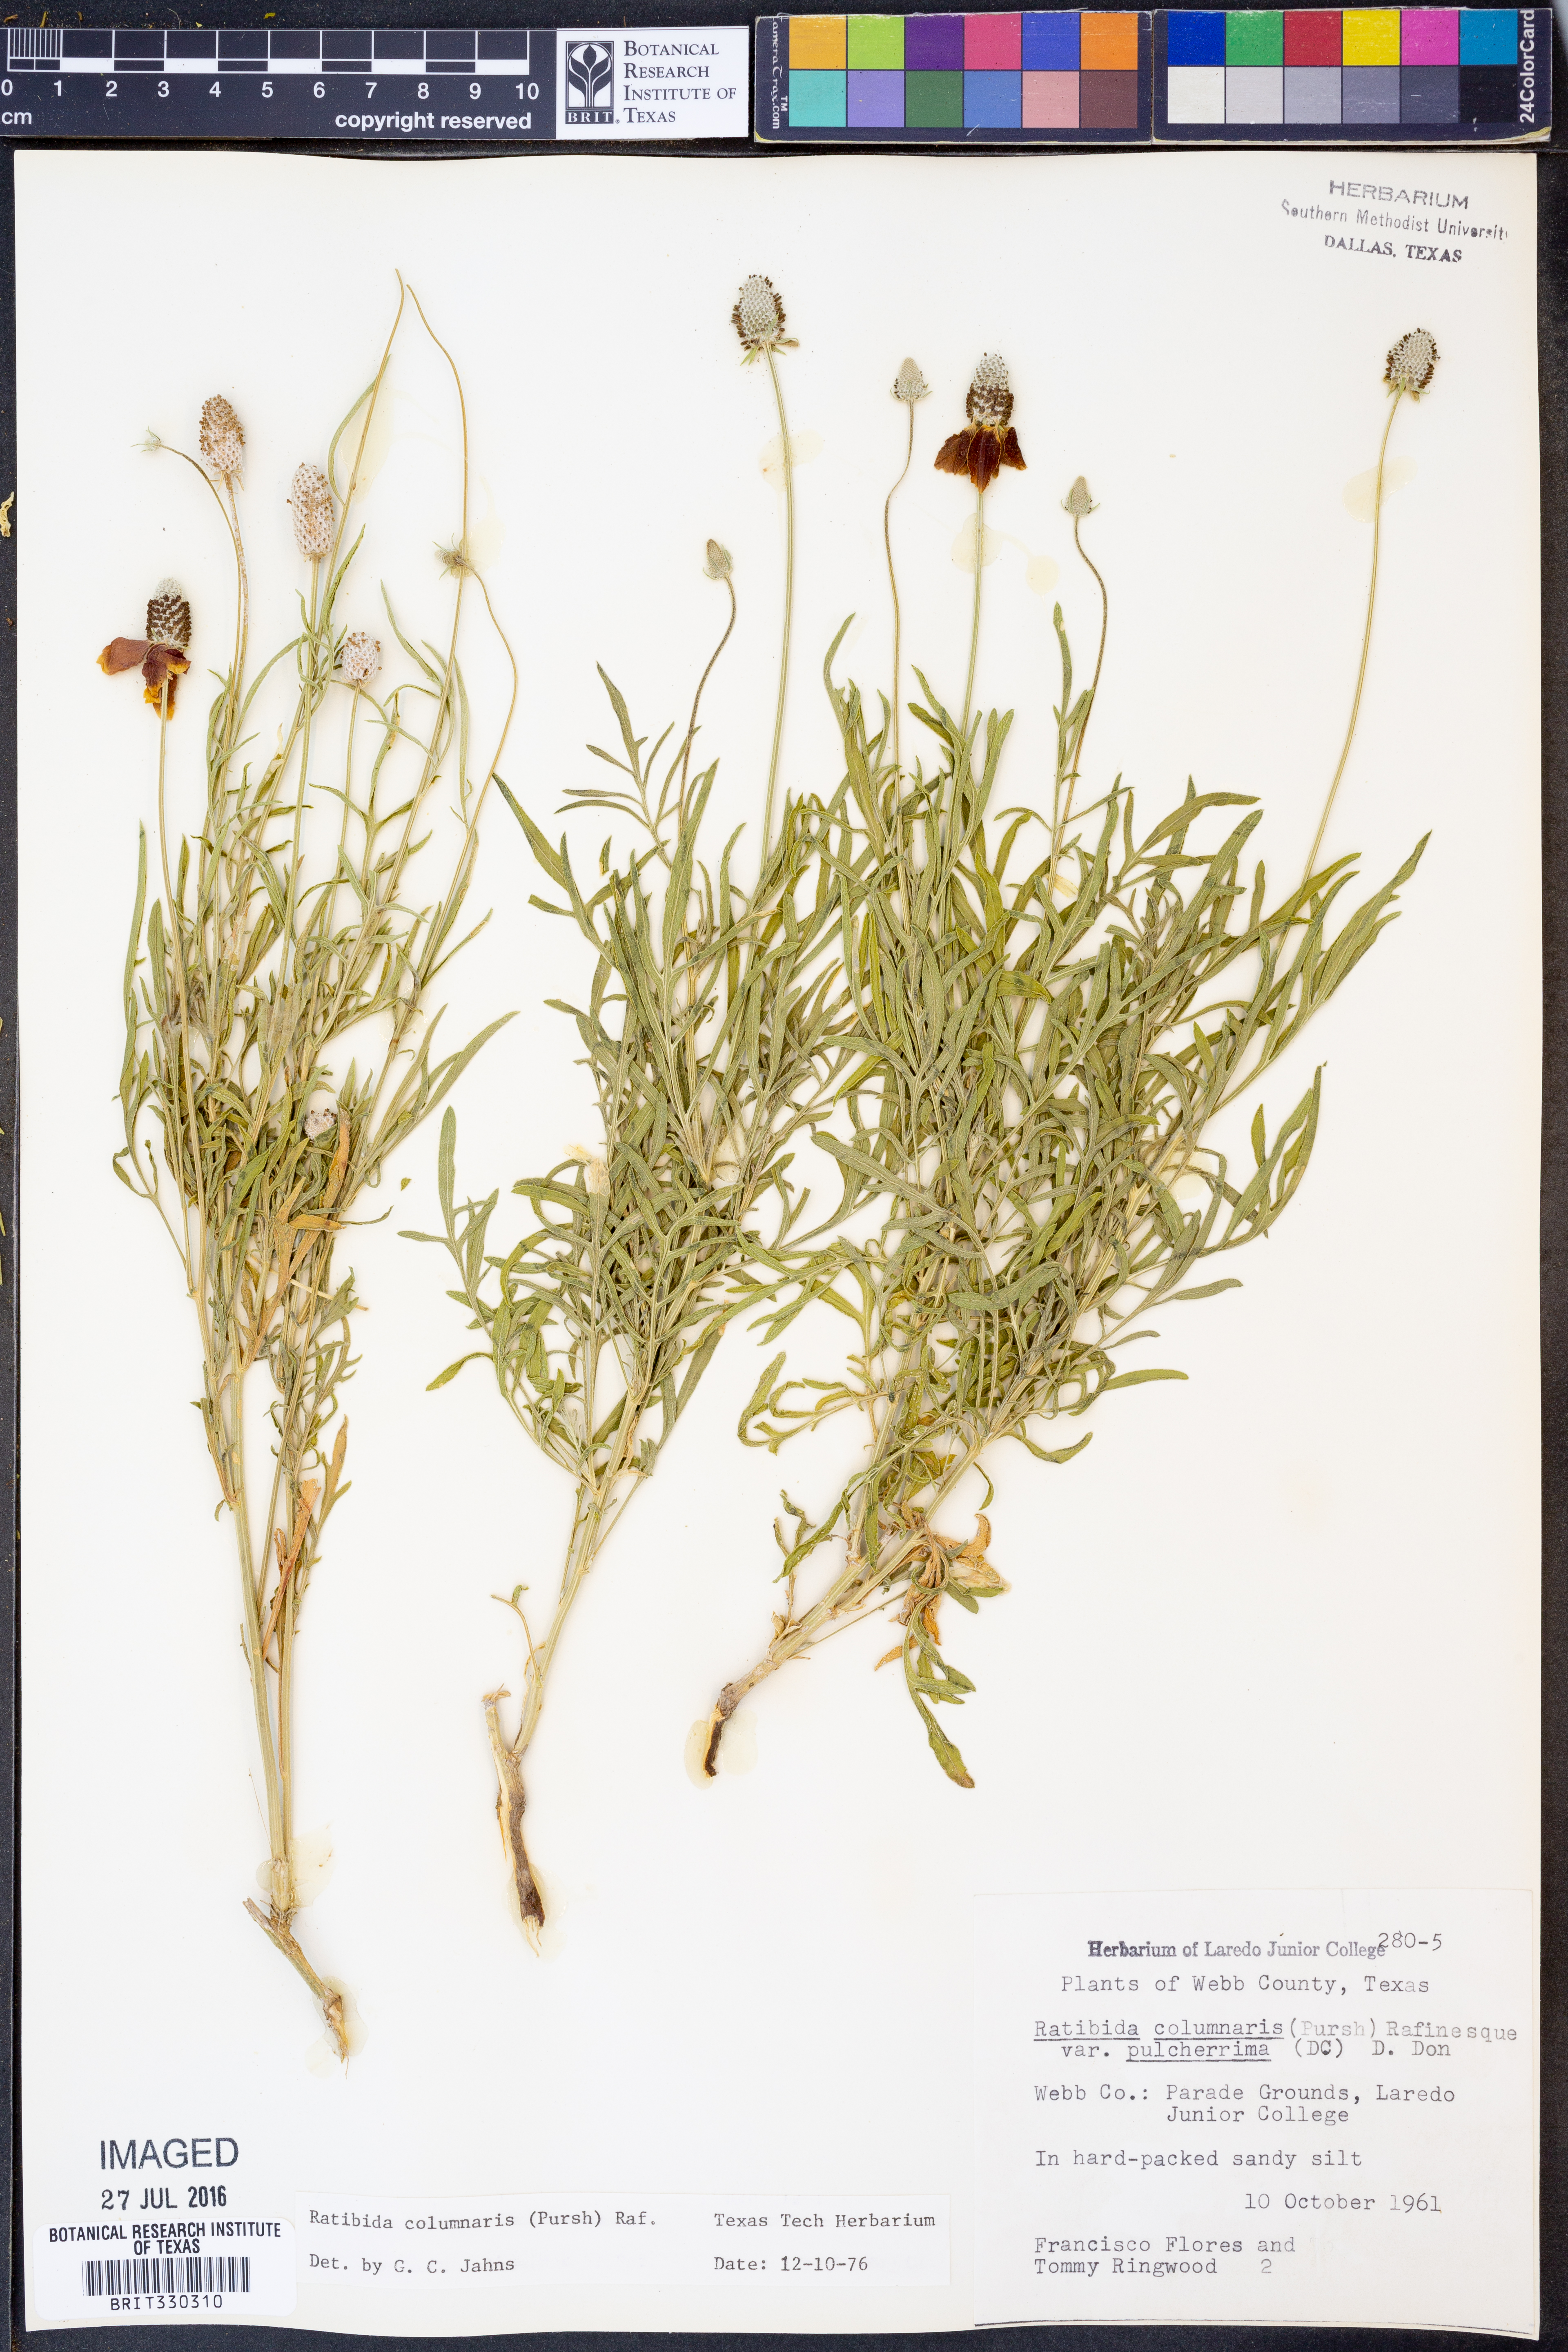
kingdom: Plantae
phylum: Tracheophyta
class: Magnoliopsida
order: Asterales
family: Asteraceae
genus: Ratibida
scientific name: Ratibida columnifera
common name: Prairie coneflower
